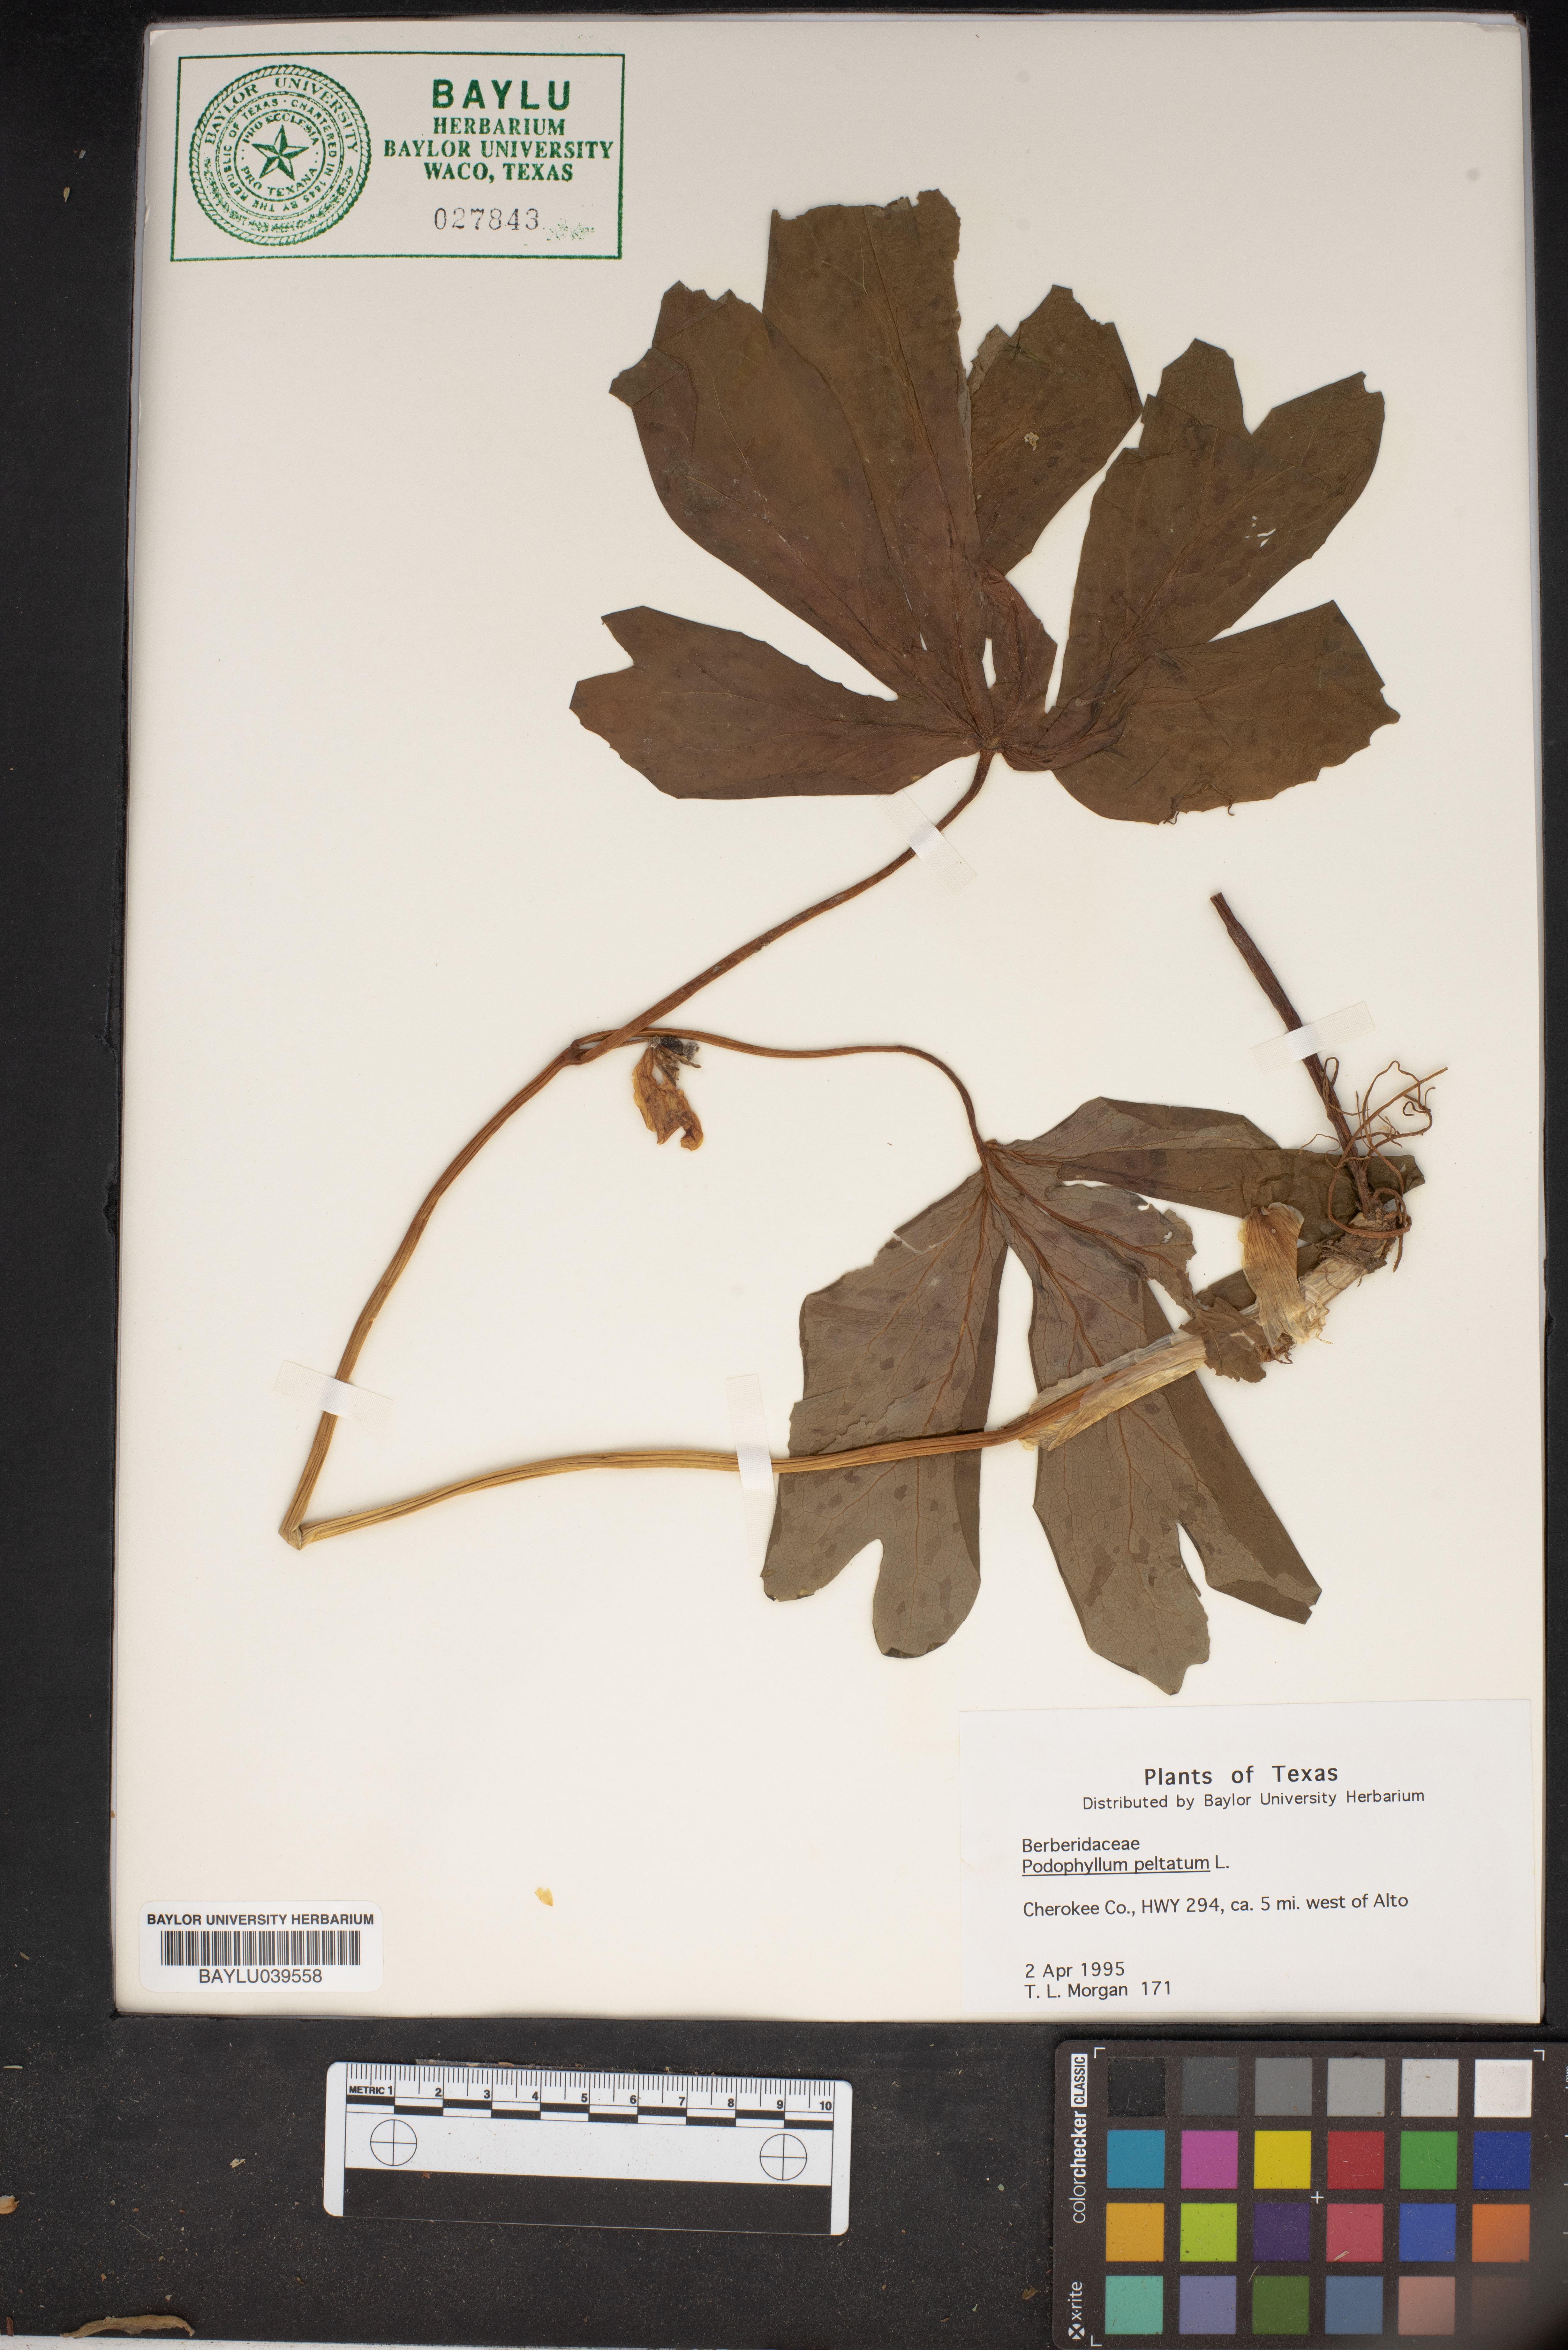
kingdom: Plantae
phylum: Tracheophyta
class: Magnoliopsida
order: Ranunculales
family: Berberidaceae
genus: Podophyllum
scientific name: Podophyllum peltatum
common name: Wild mandrake
